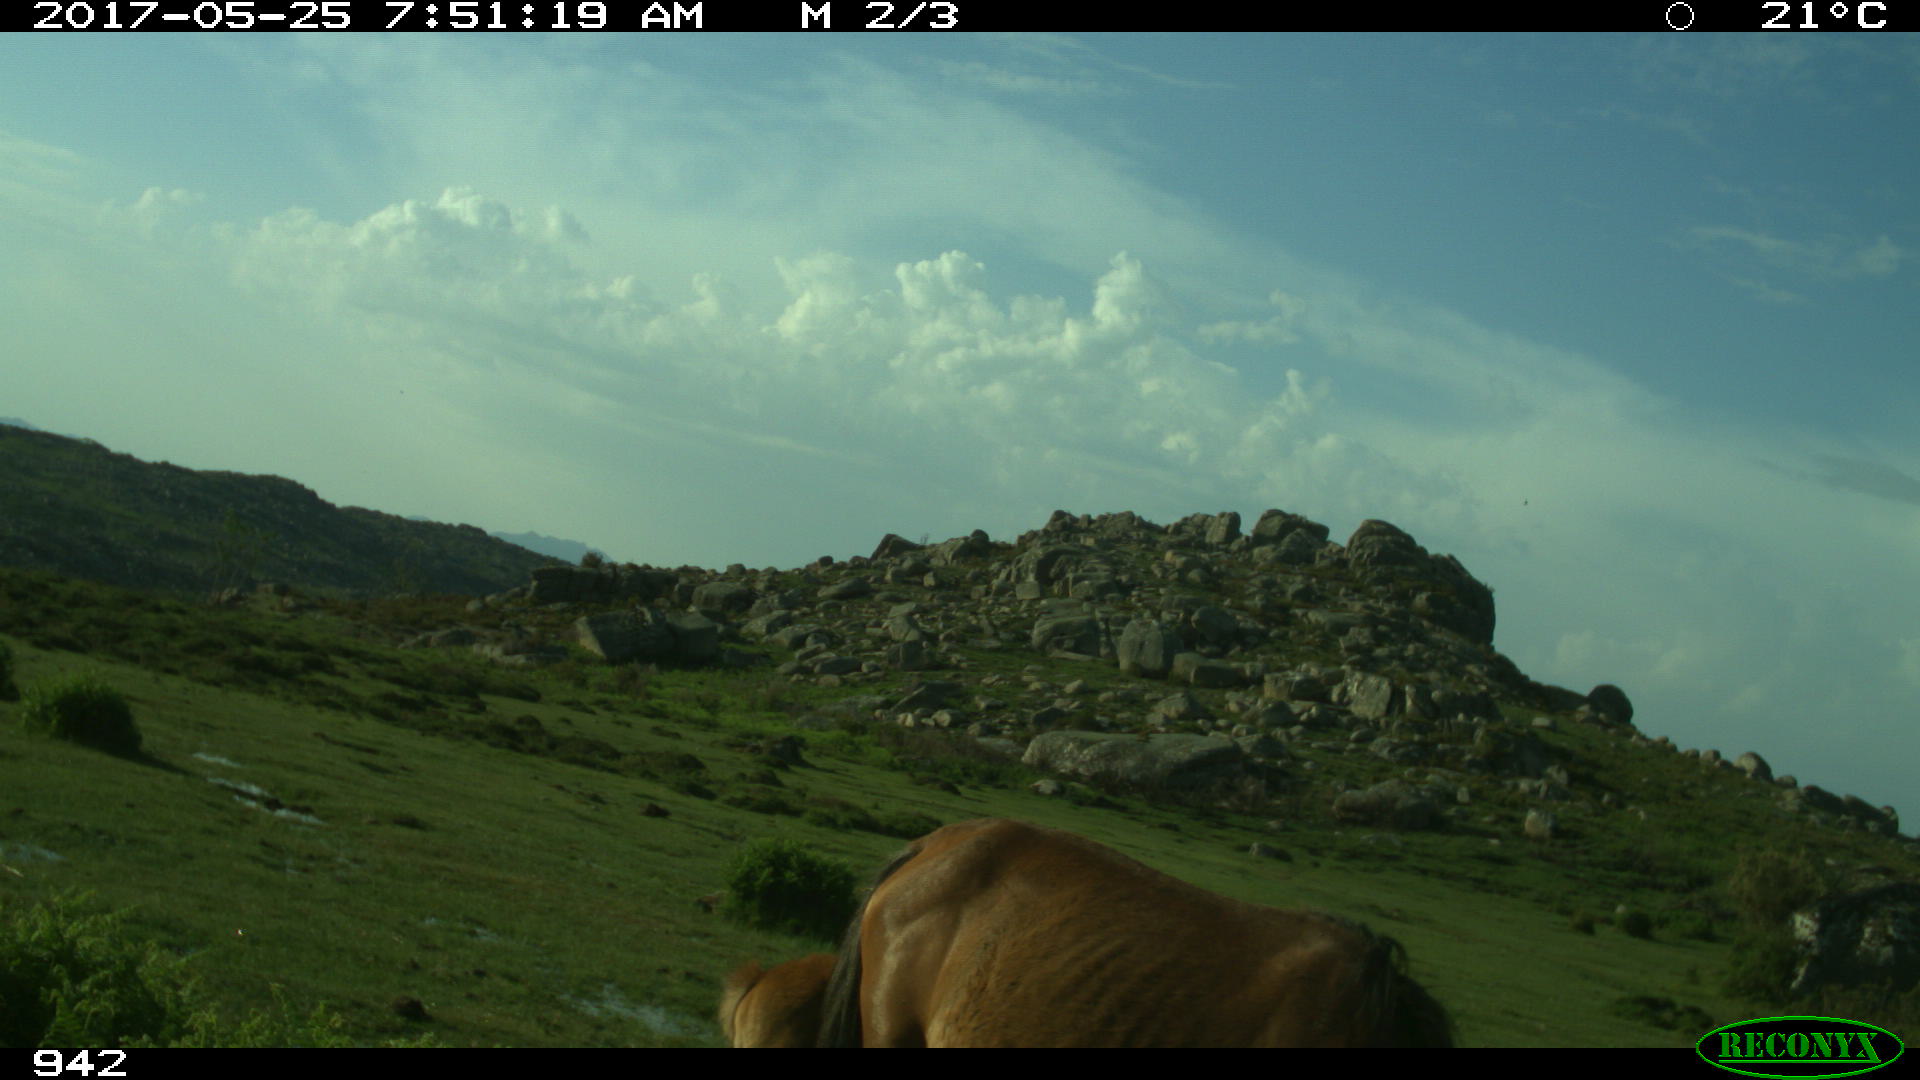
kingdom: Animalia
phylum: Chordata
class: Mammalia
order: Perissodactyla
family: Equidae
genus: Equus
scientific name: Equus caballus
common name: Horse
